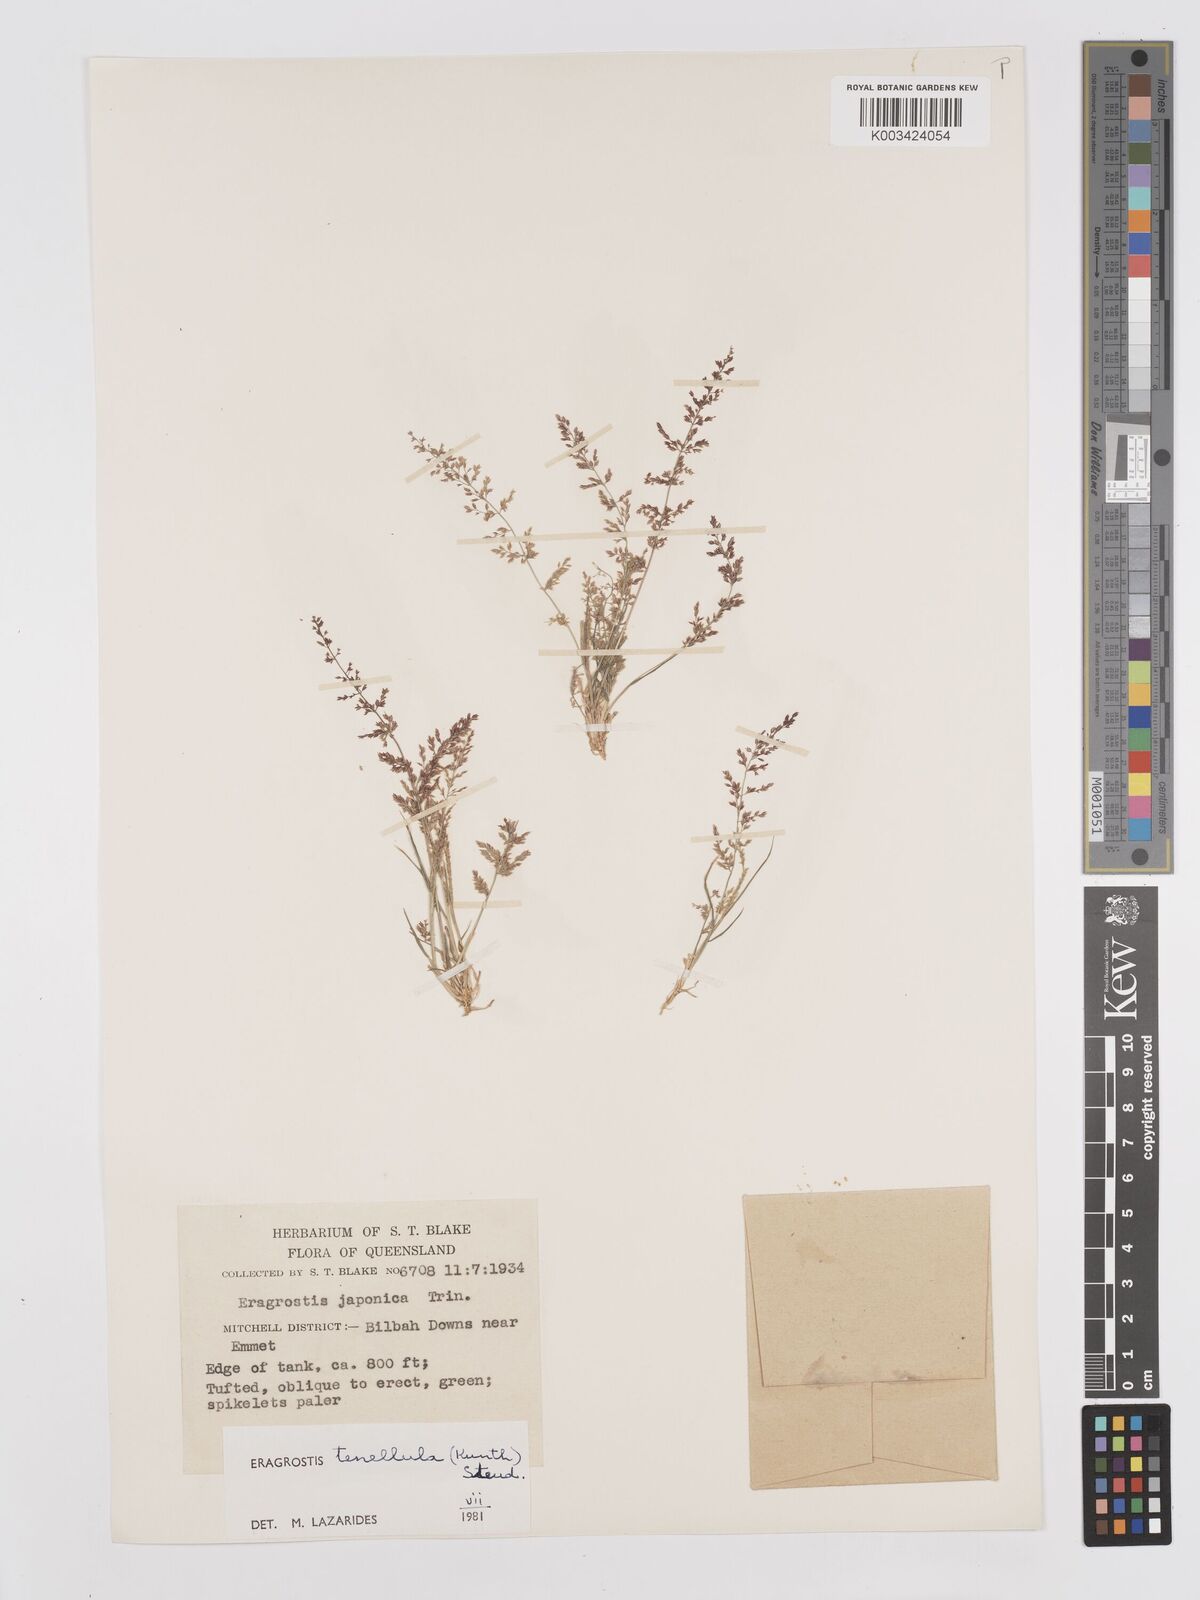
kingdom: Plantae
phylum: Tracheophyta
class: Liliopsida
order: Poales
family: Poaceae
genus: Eragrostis
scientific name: Eragrostis tenellula
